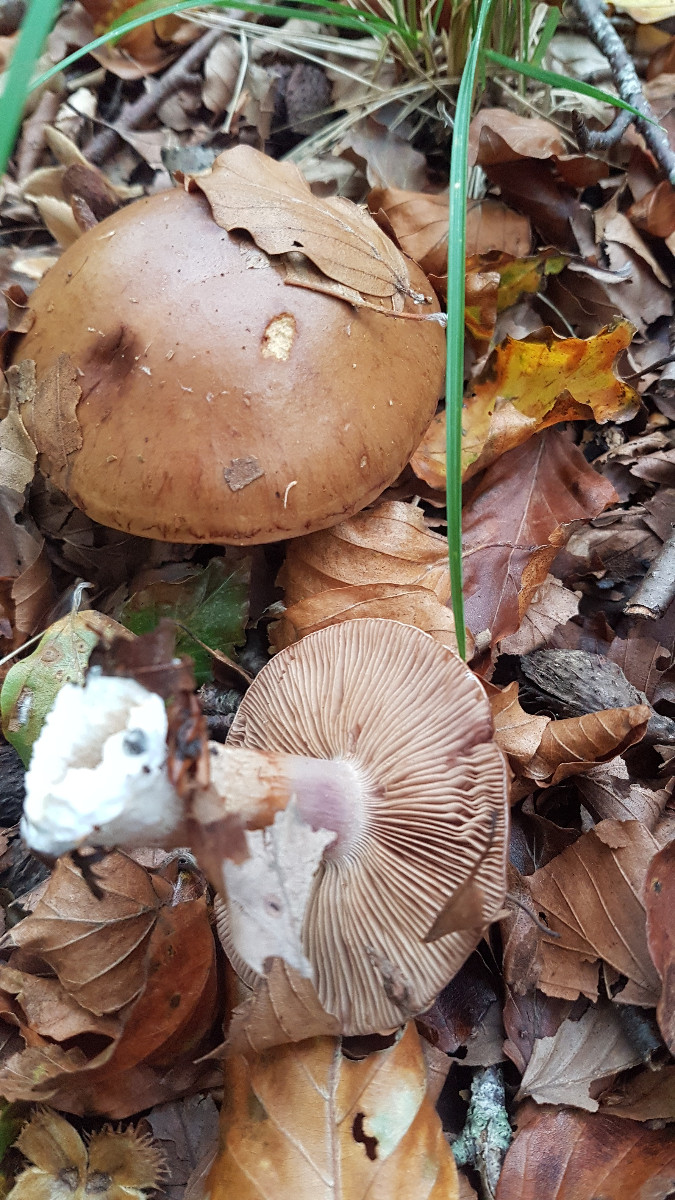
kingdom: Fungi
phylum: Basidiomycota
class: Agaricomycetes
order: Agaricales
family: Cortinariaceae
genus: Cortinarius
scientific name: Cortinarius largus
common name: violetrandet slørhat
